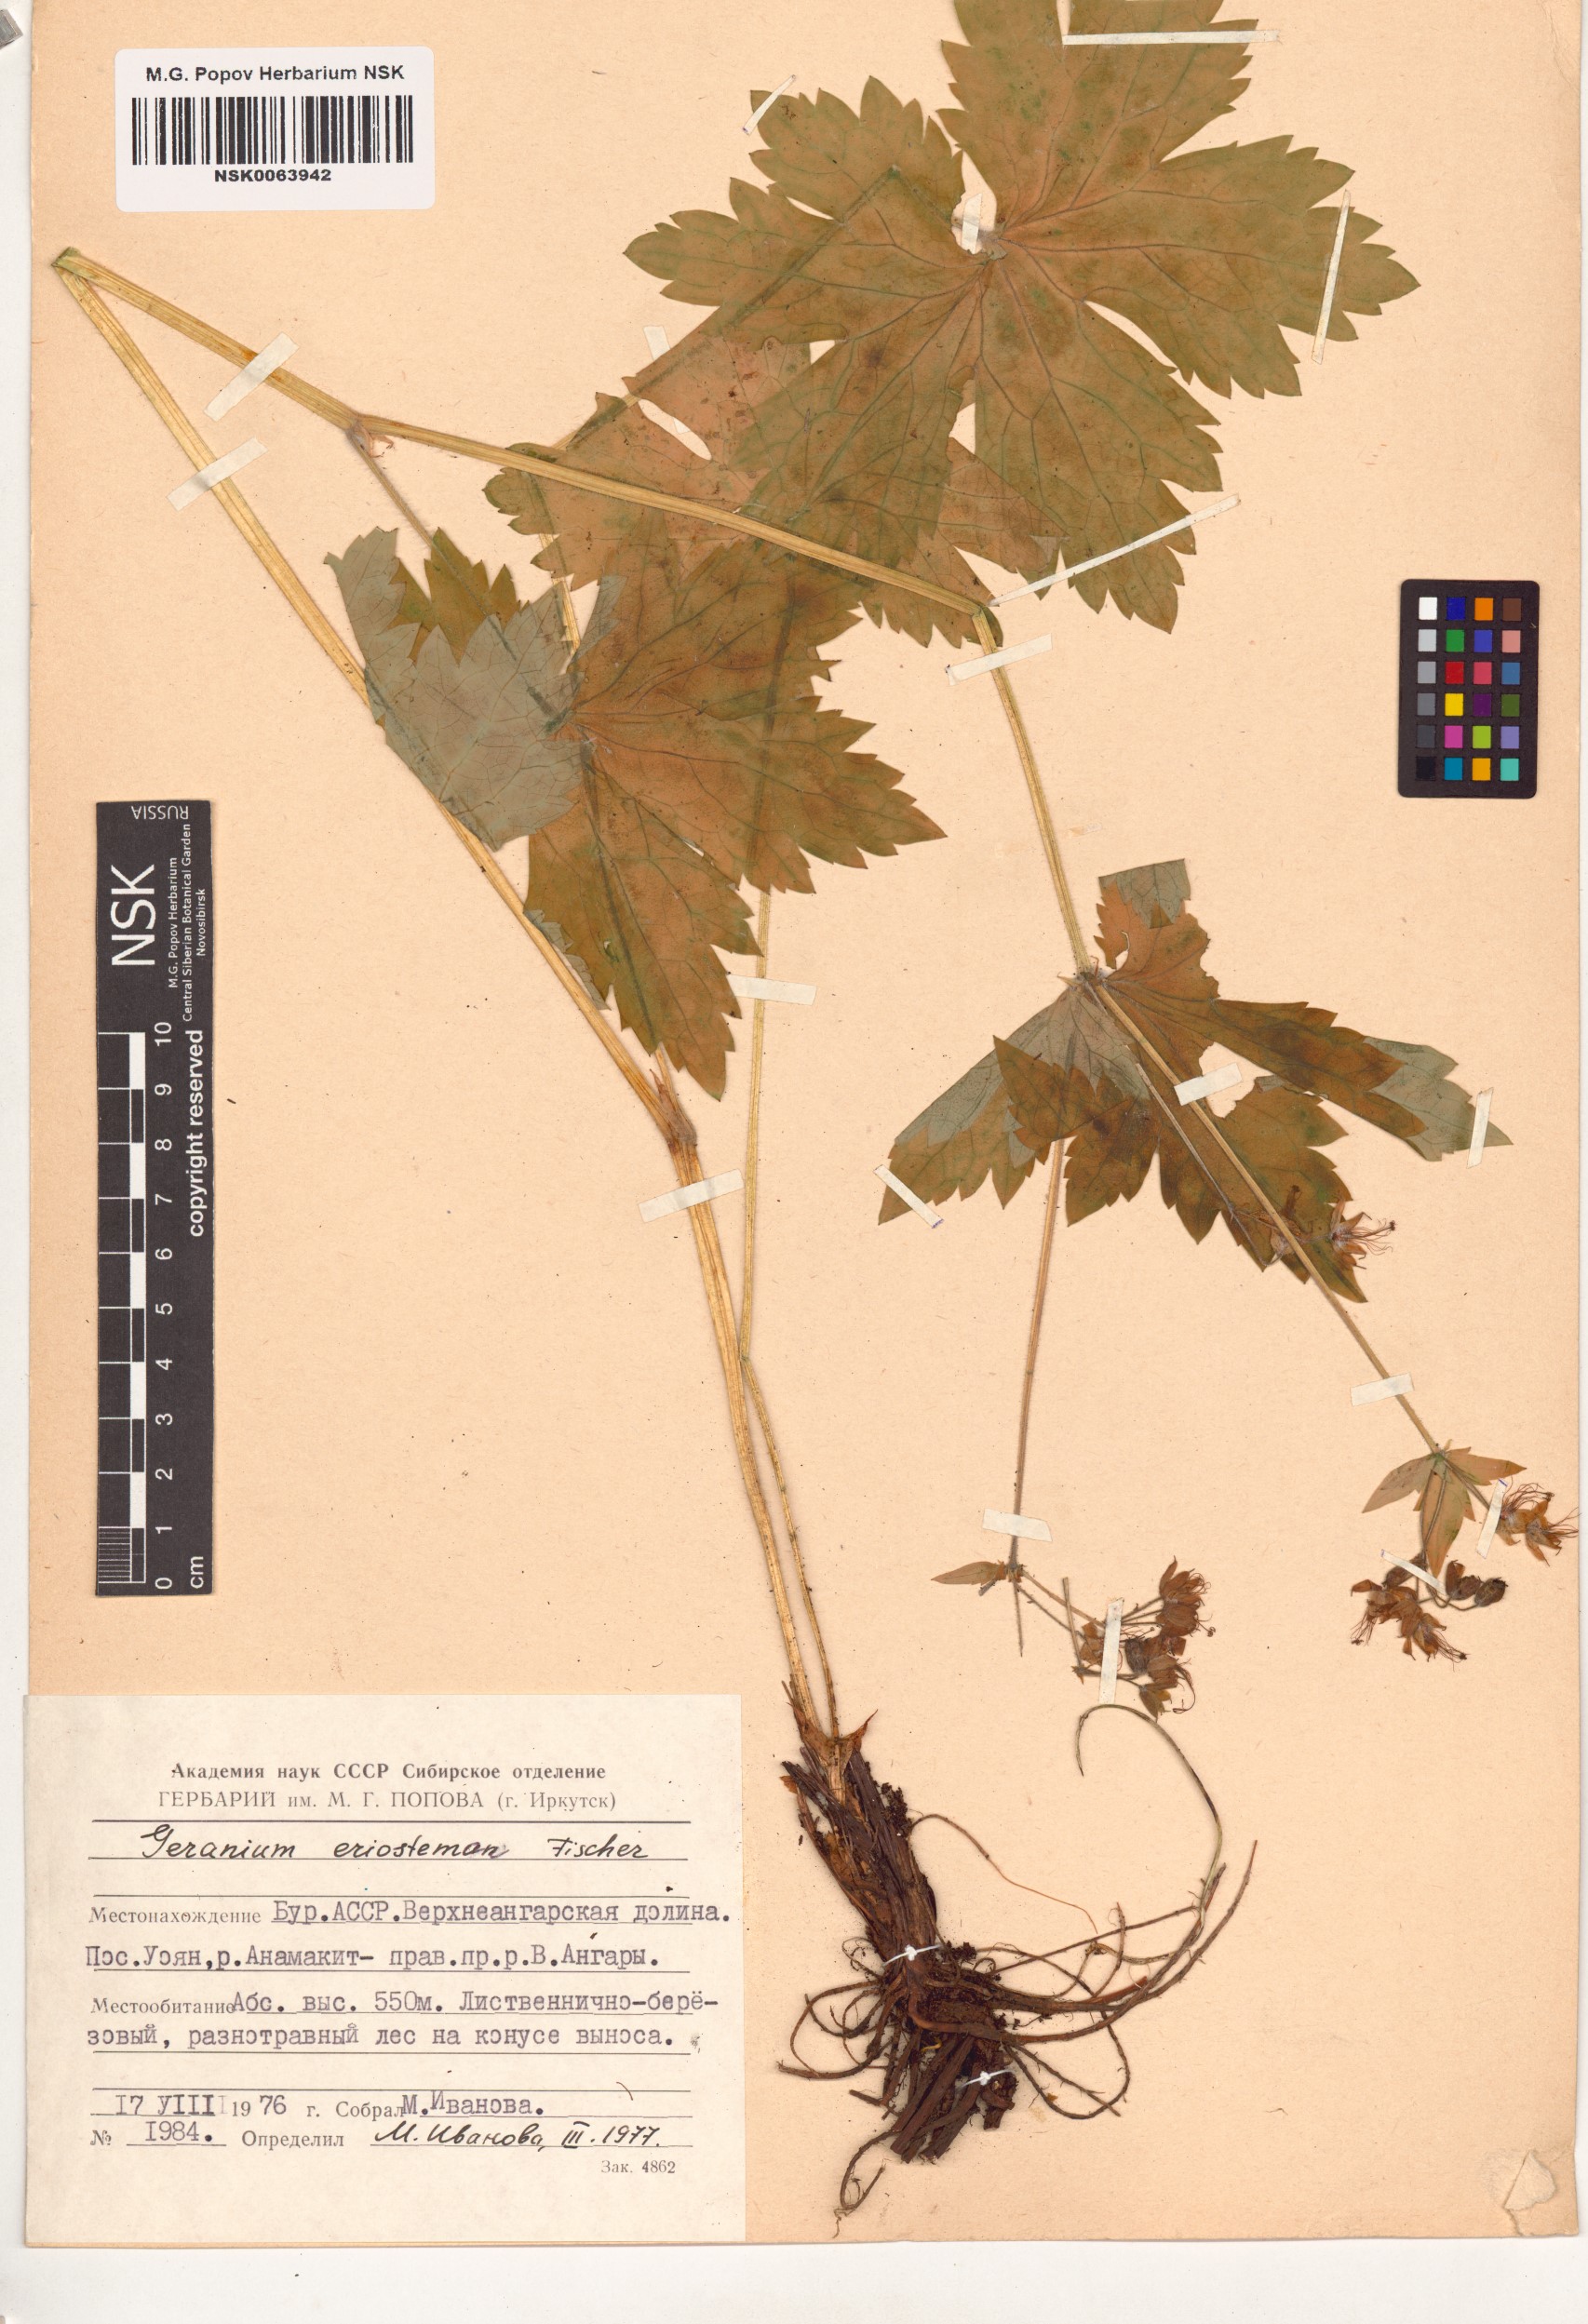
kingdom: Plantae
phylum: Tracheophyta
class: Magnoliopsida
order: Geraniales
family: Geraniaceae
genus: Geranium
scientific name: Geranium platyanthum
